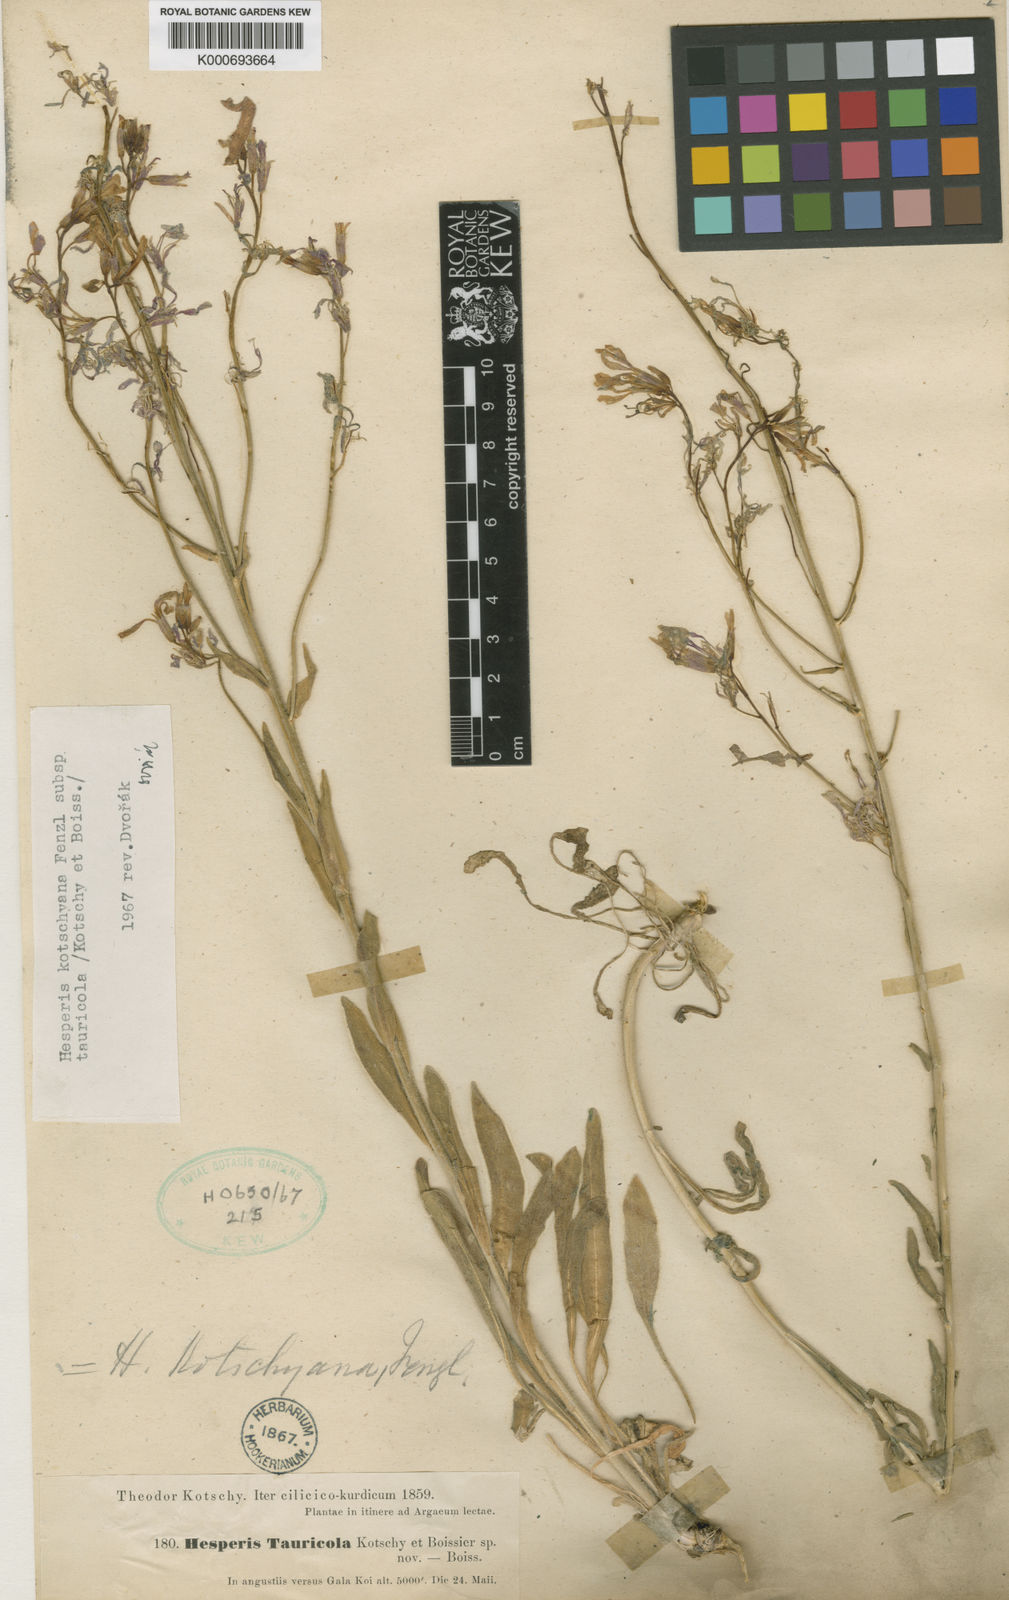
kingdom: Plantae
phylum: Tracheophyta
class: Magnoliopsida
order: Brassicales
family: Brassicaceae
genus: Hesperis
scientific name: Hesperis bicuspidata
